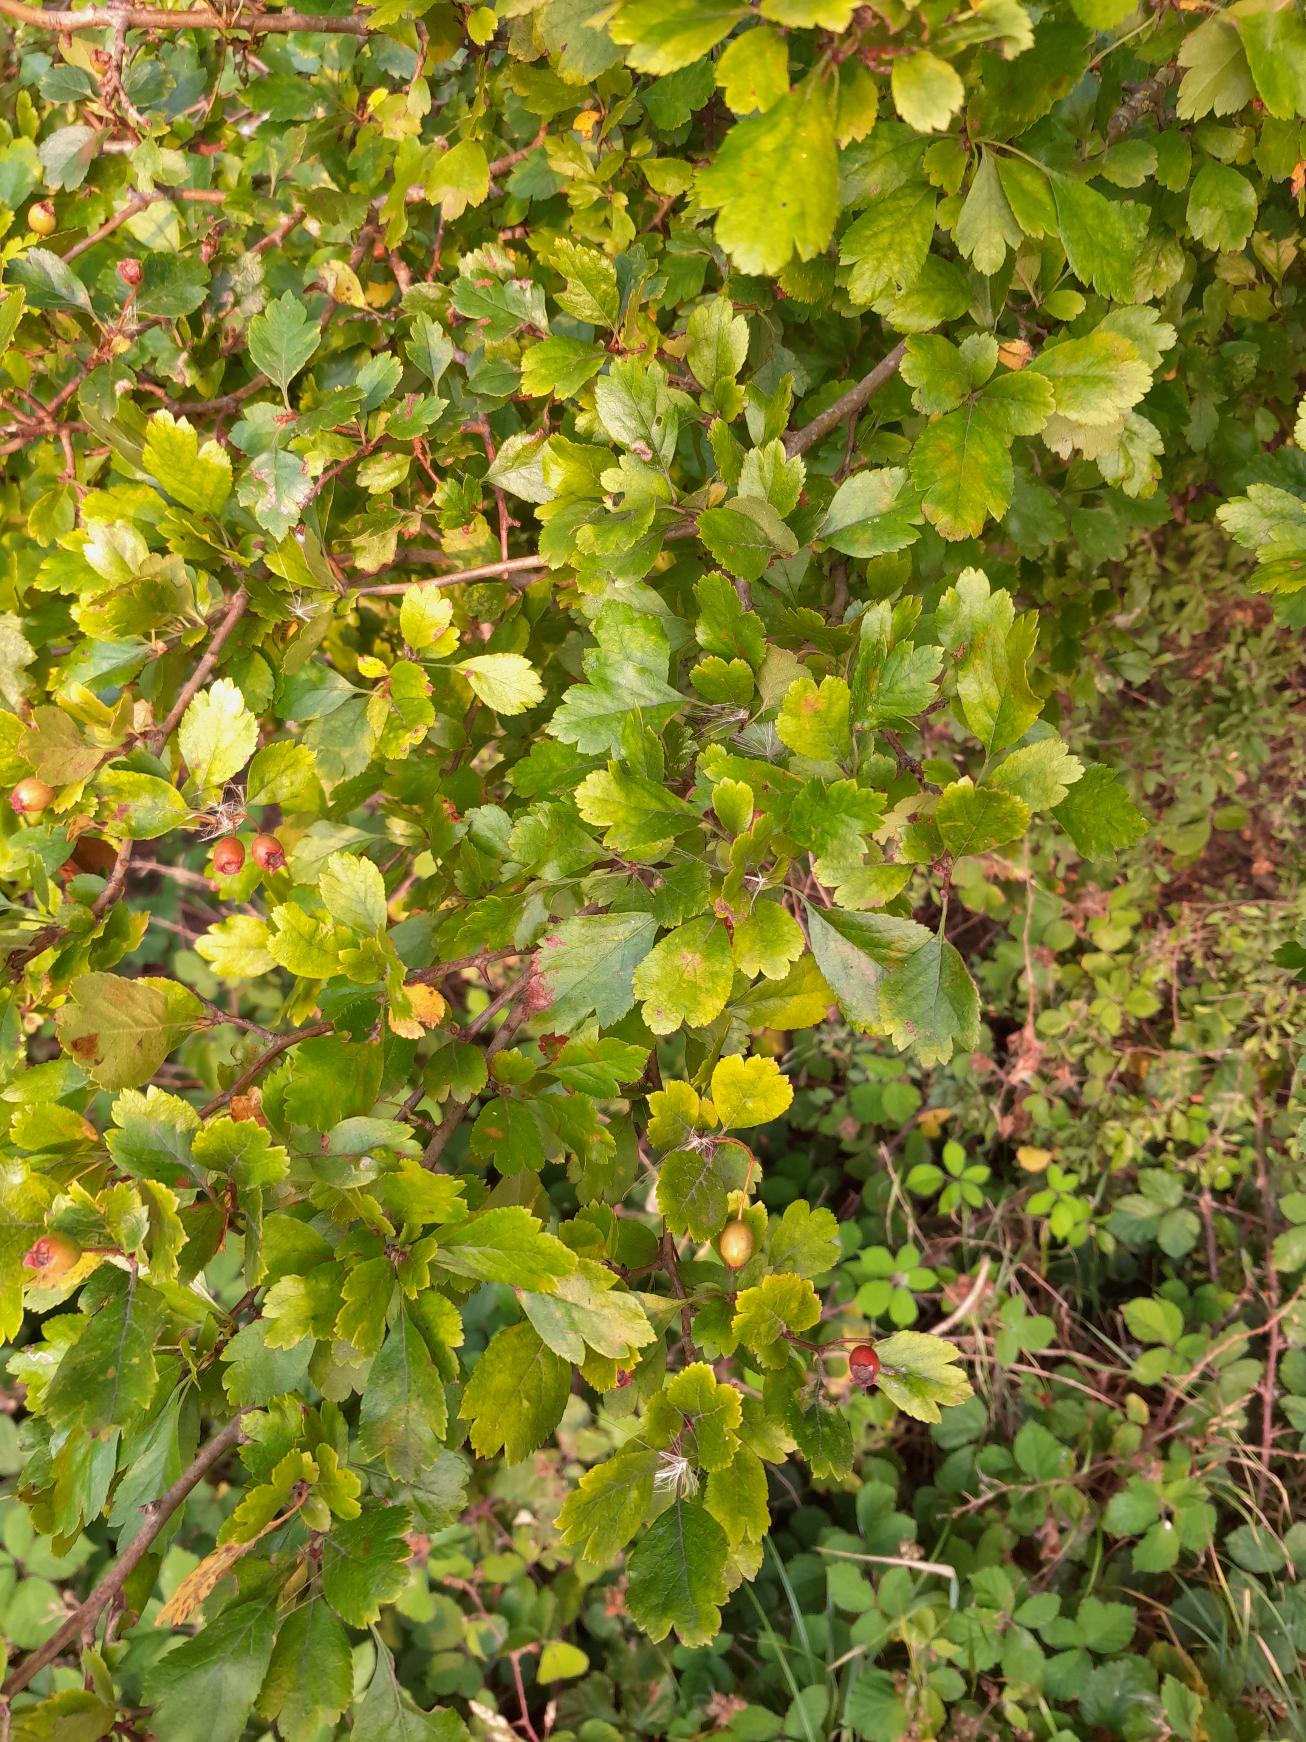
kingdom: Plantae
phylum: Tracheophyta
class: Magnoliopsida
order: Rosales
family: Rosaceae
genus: Crataegus
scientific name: Crataegus laevigata
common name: Almindelig hvidtjørn
